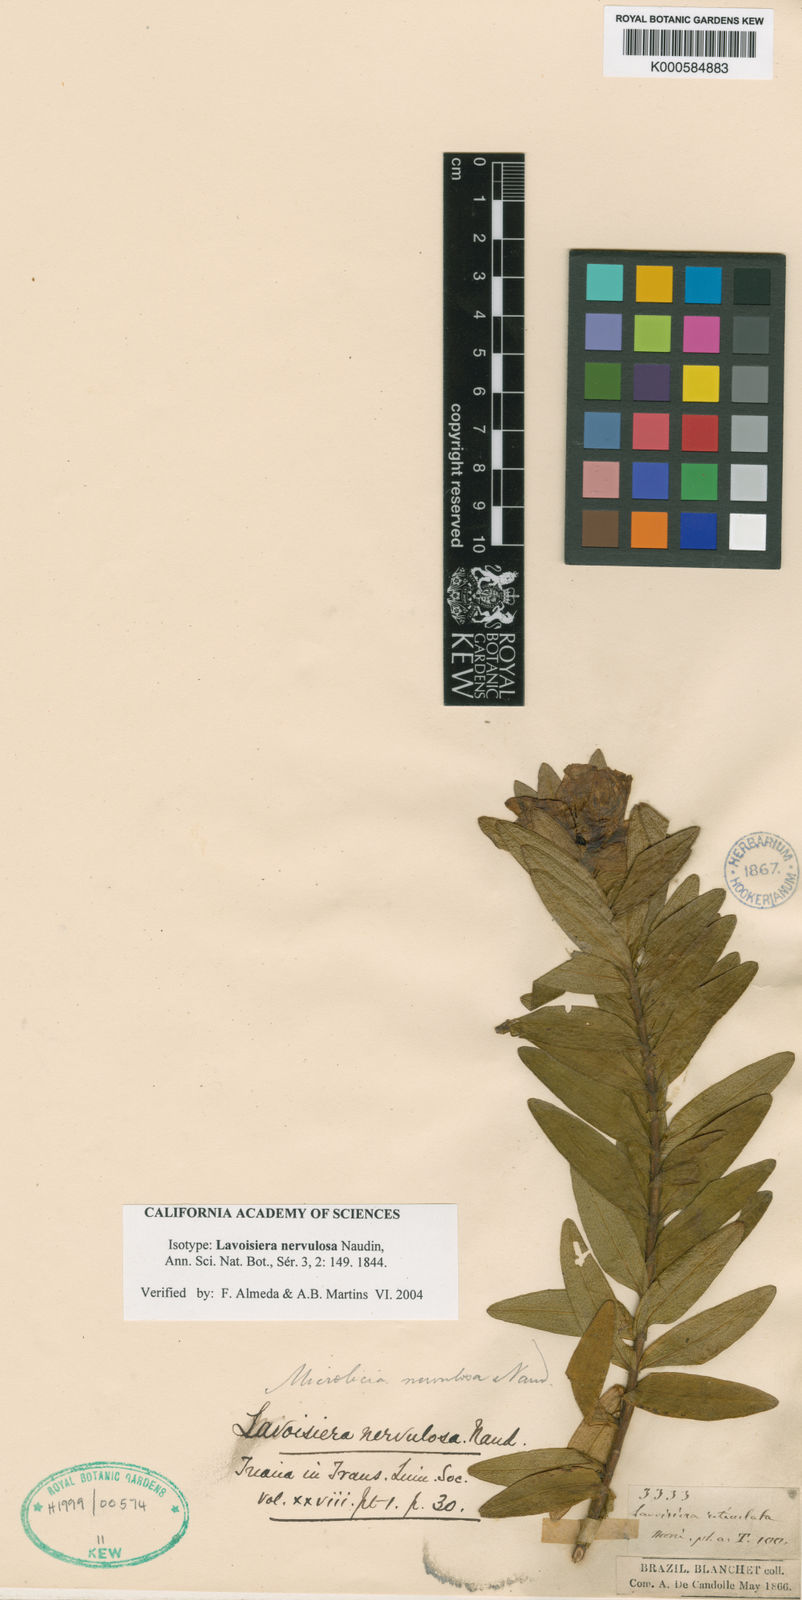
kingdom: Plantae
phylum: Tracheophyta
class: Magnoliopsida
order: Myrtales
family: Melastomataceae
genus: Microlicia
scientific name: Microlicia nervulosa
